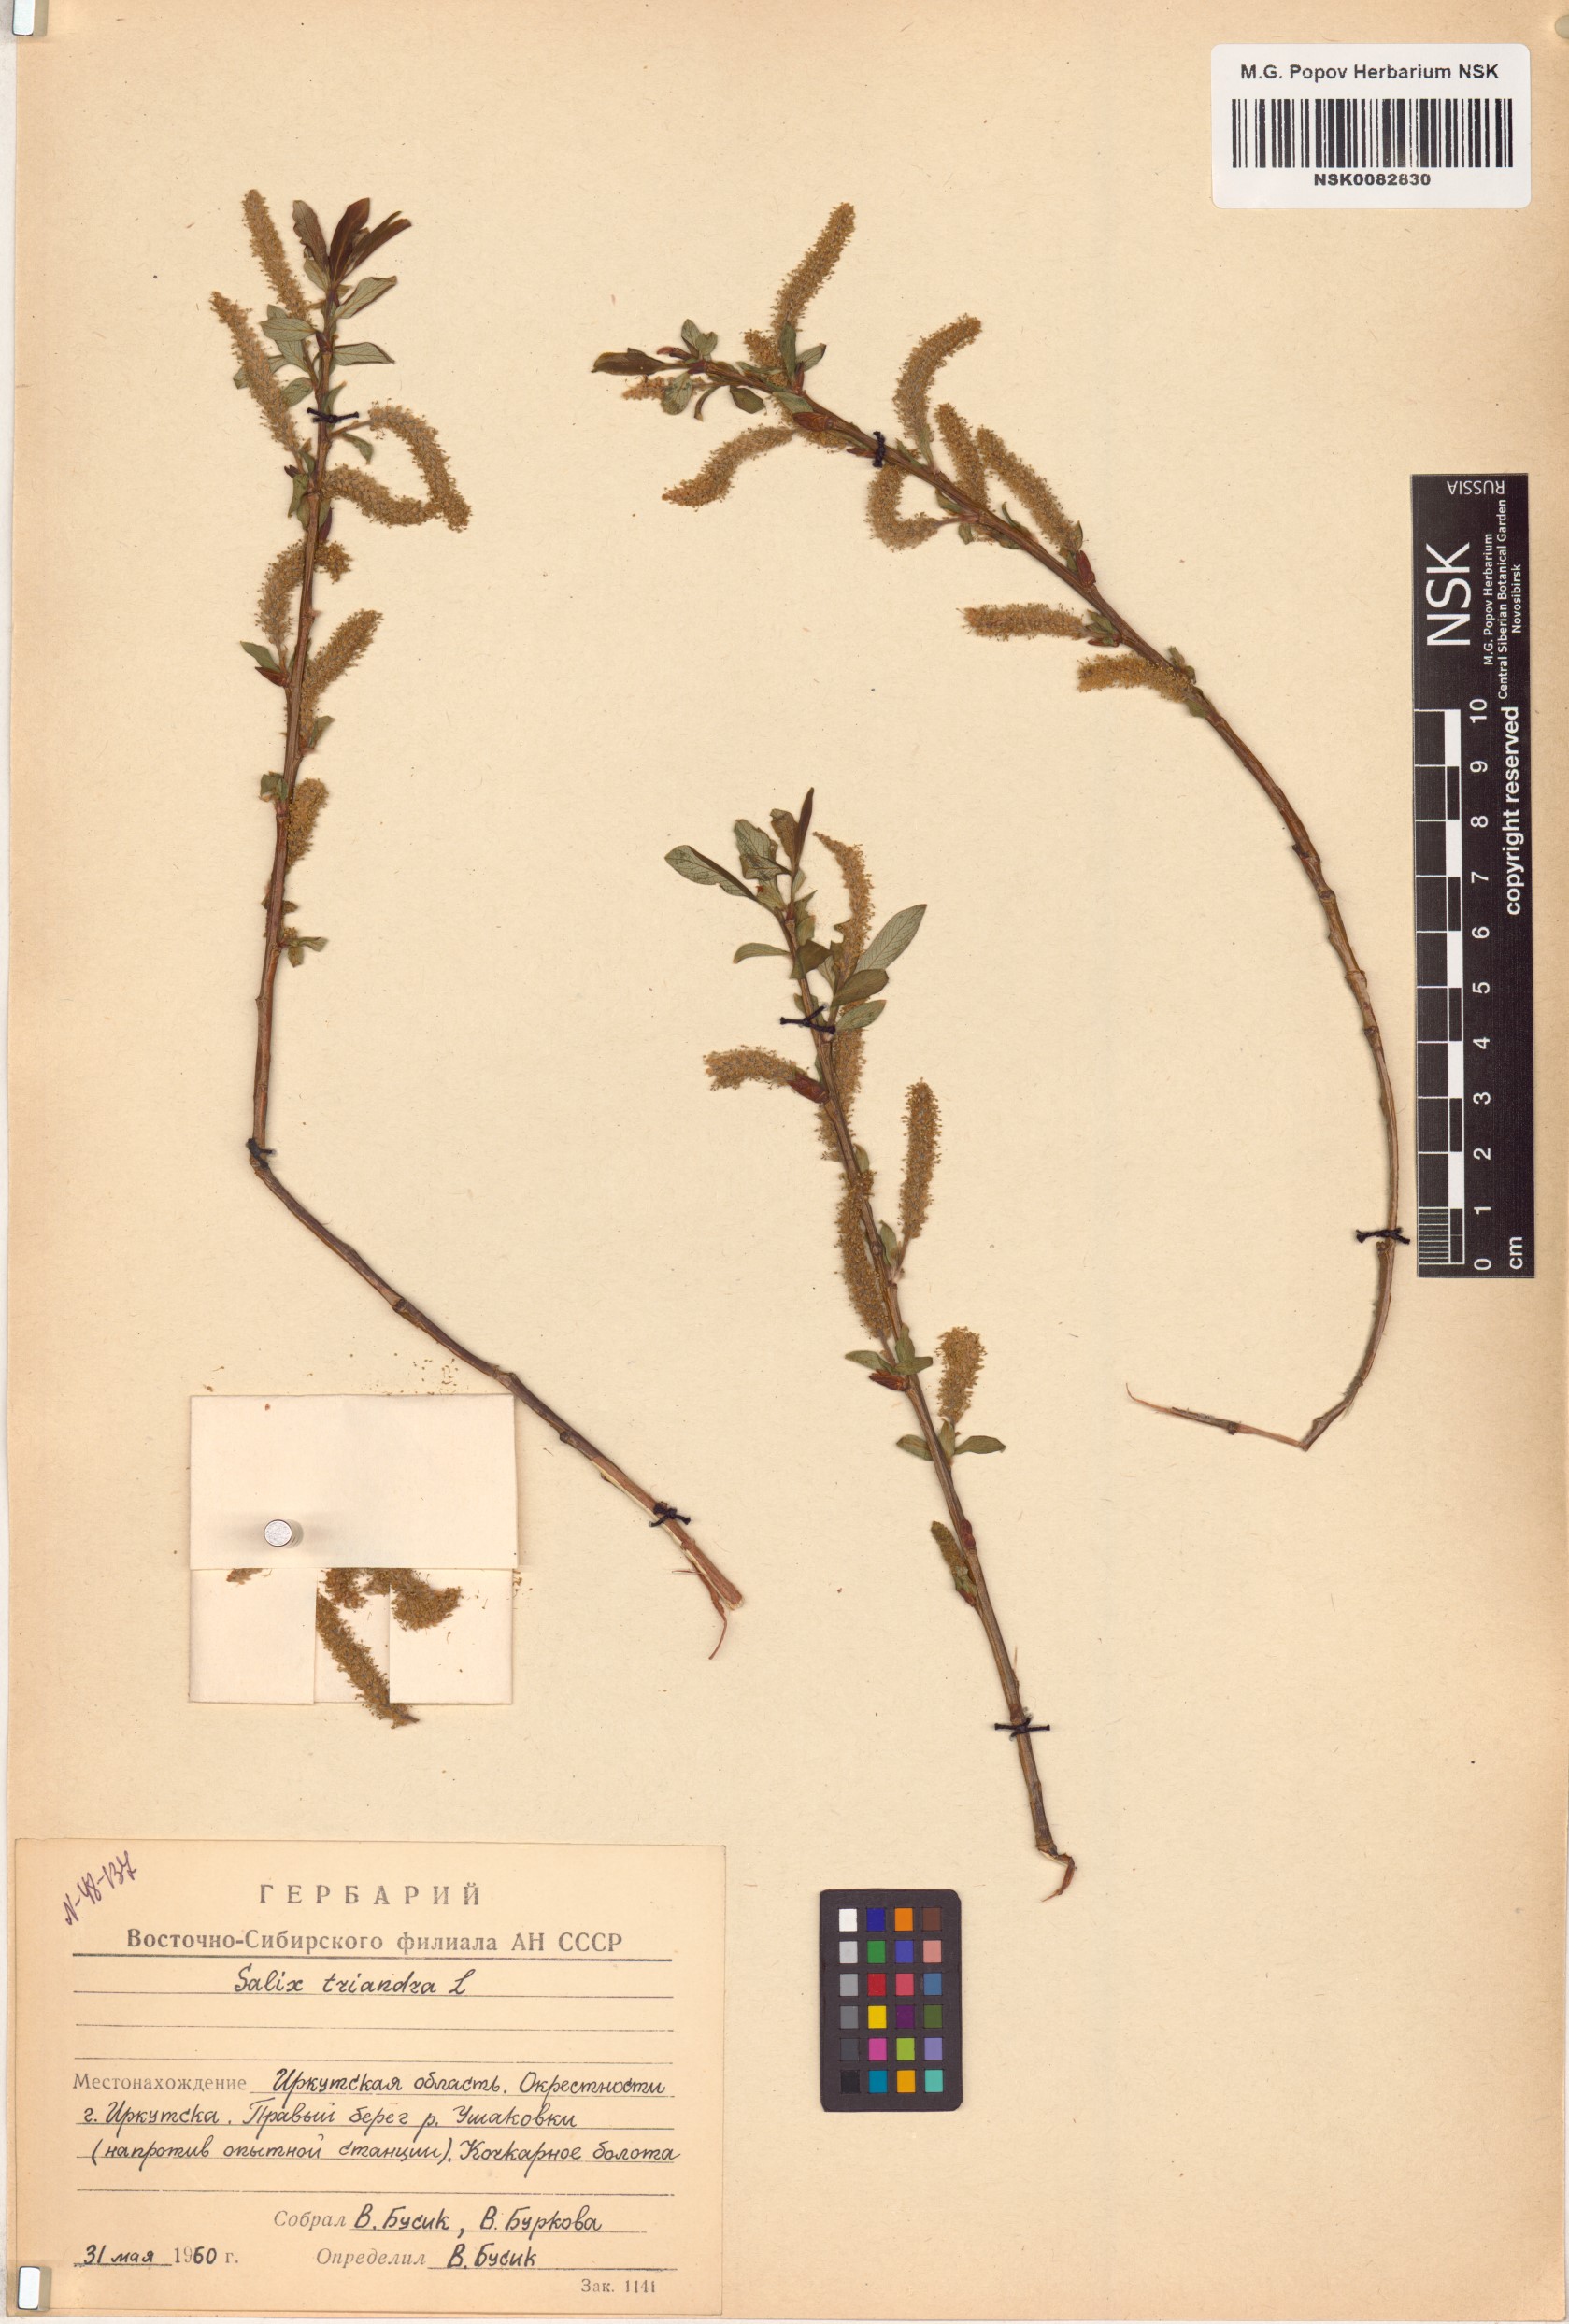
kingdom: Plantae
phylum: Tracheophyta
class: Magnoliopsida
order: Malpighiales
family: Salicaceae
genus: Salix
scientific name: Salix triandra
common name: Almond willow
